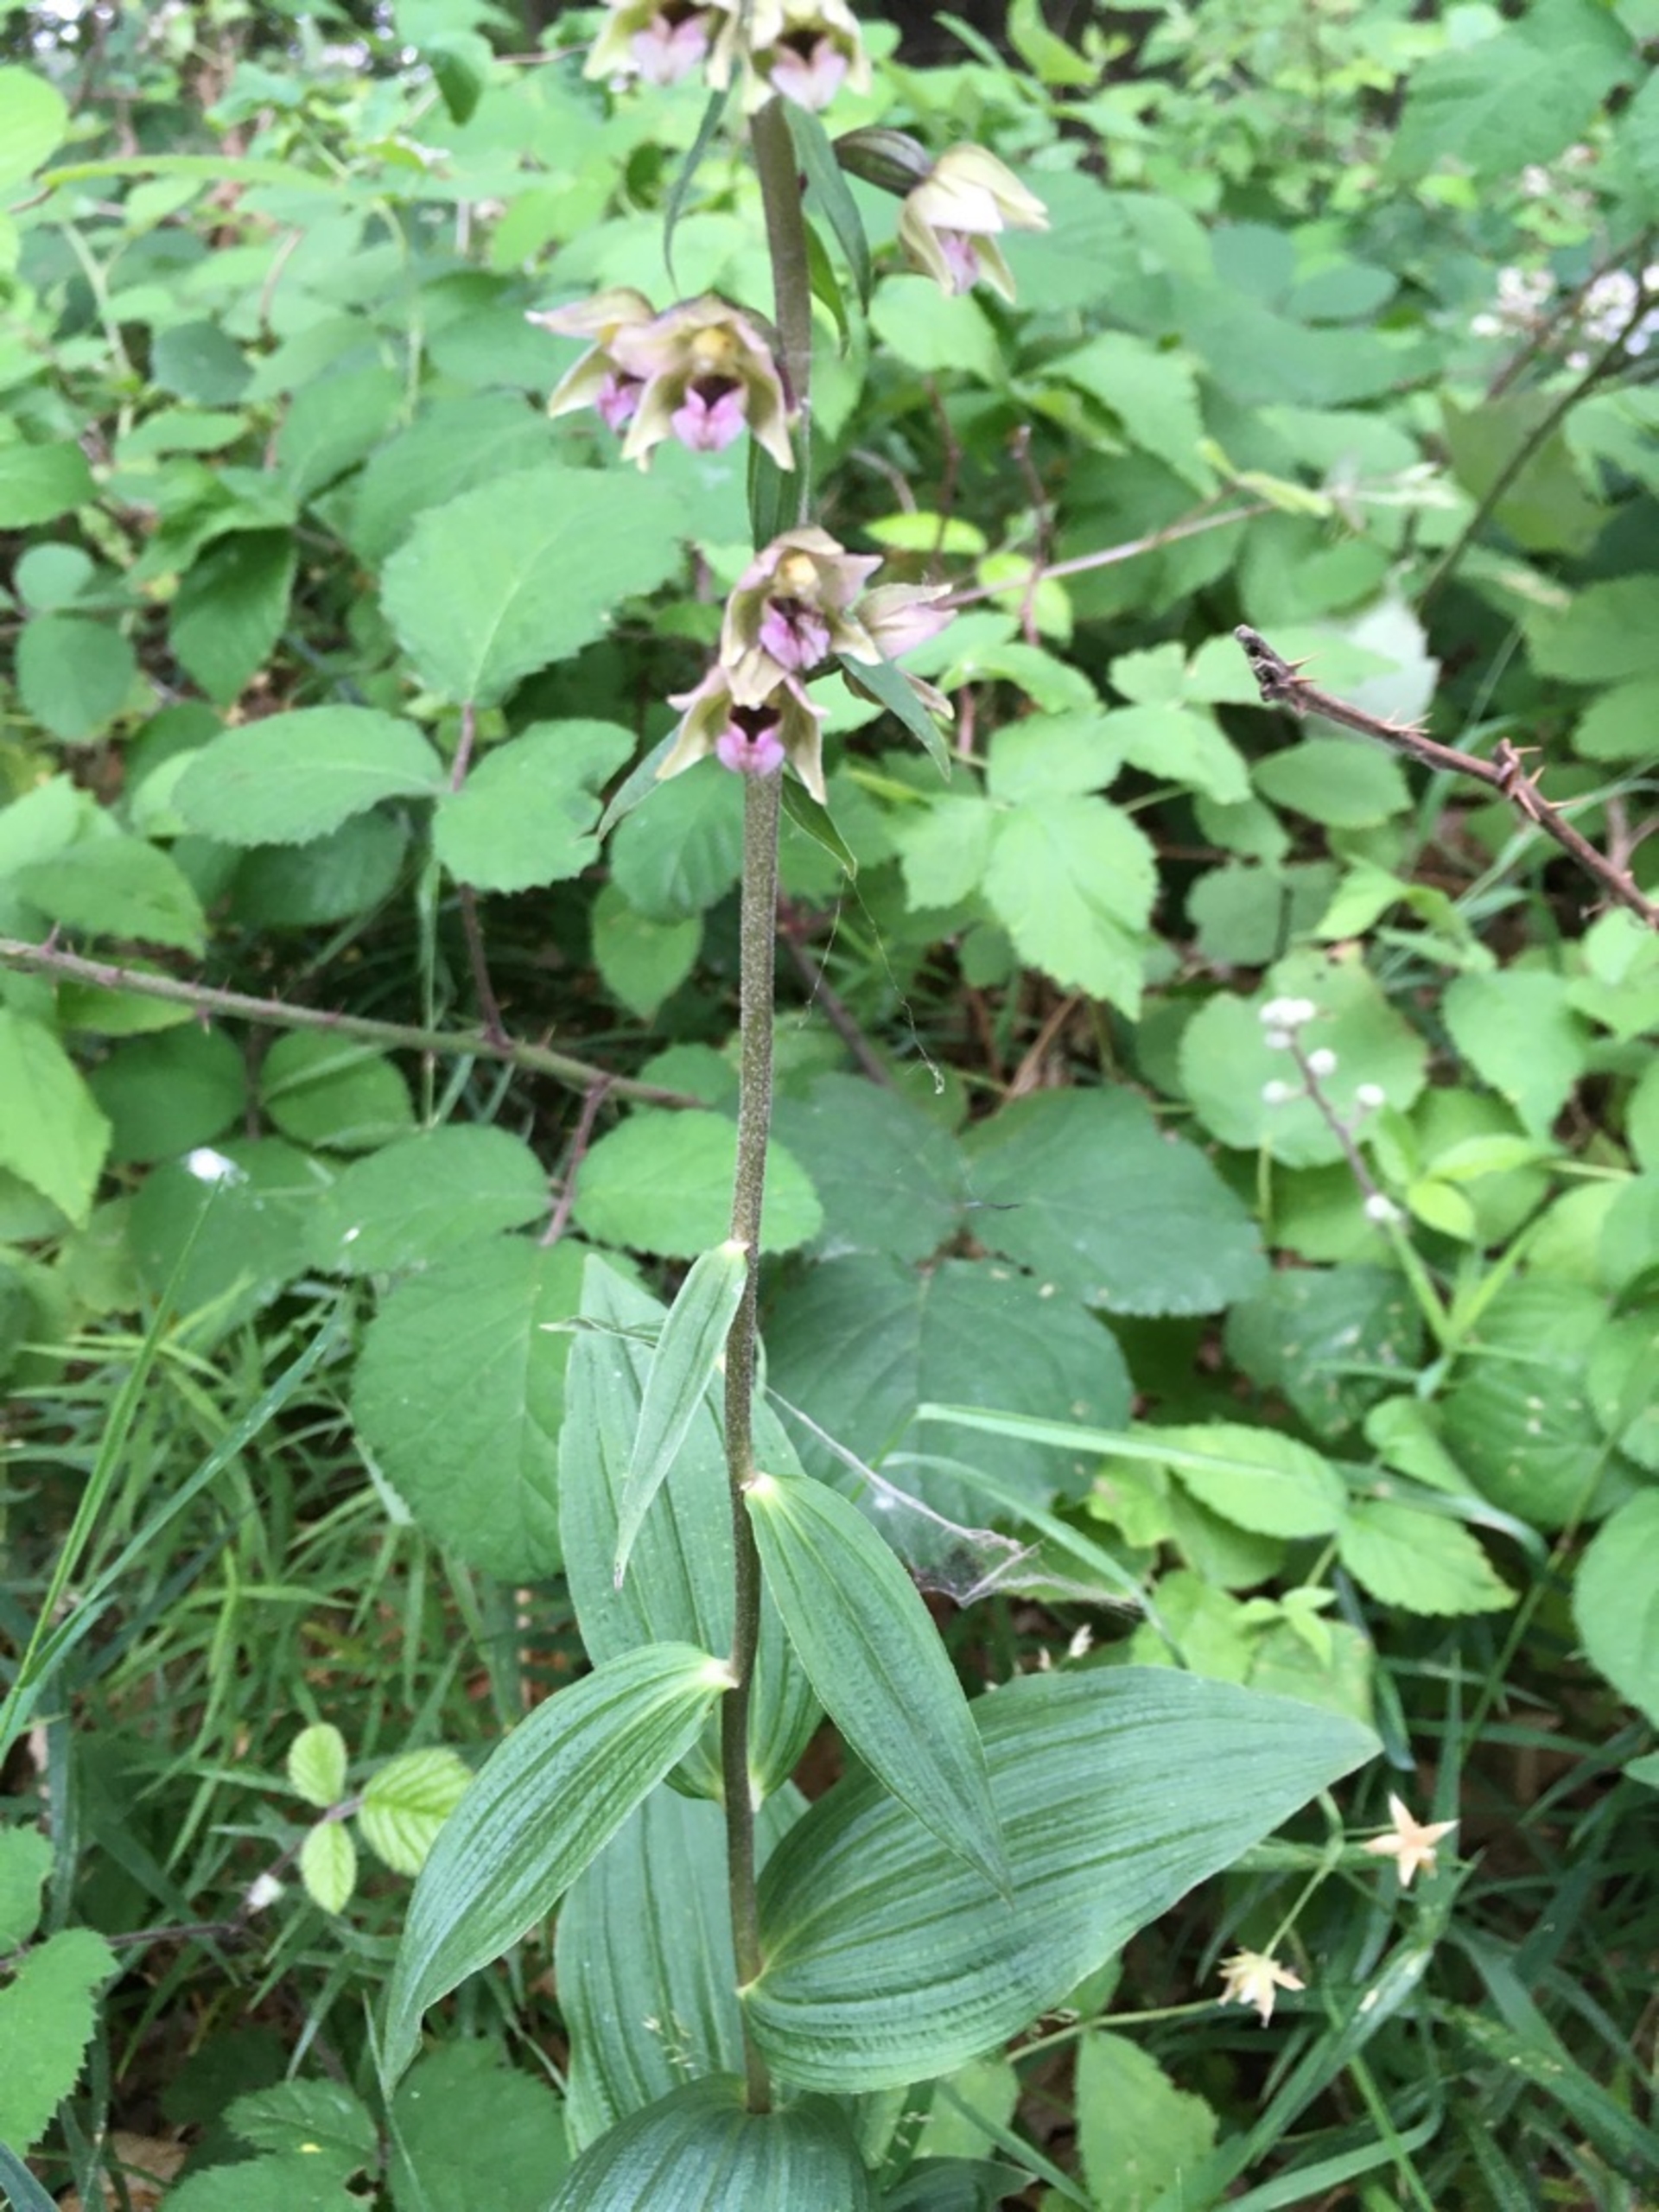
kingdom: Plantae
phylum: Tracheophyta
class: Liliopsida
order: Asparagales
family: Orchidaceae
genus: Epipactis
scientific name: Epipactis helleborine
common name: Skov-hullæbe
